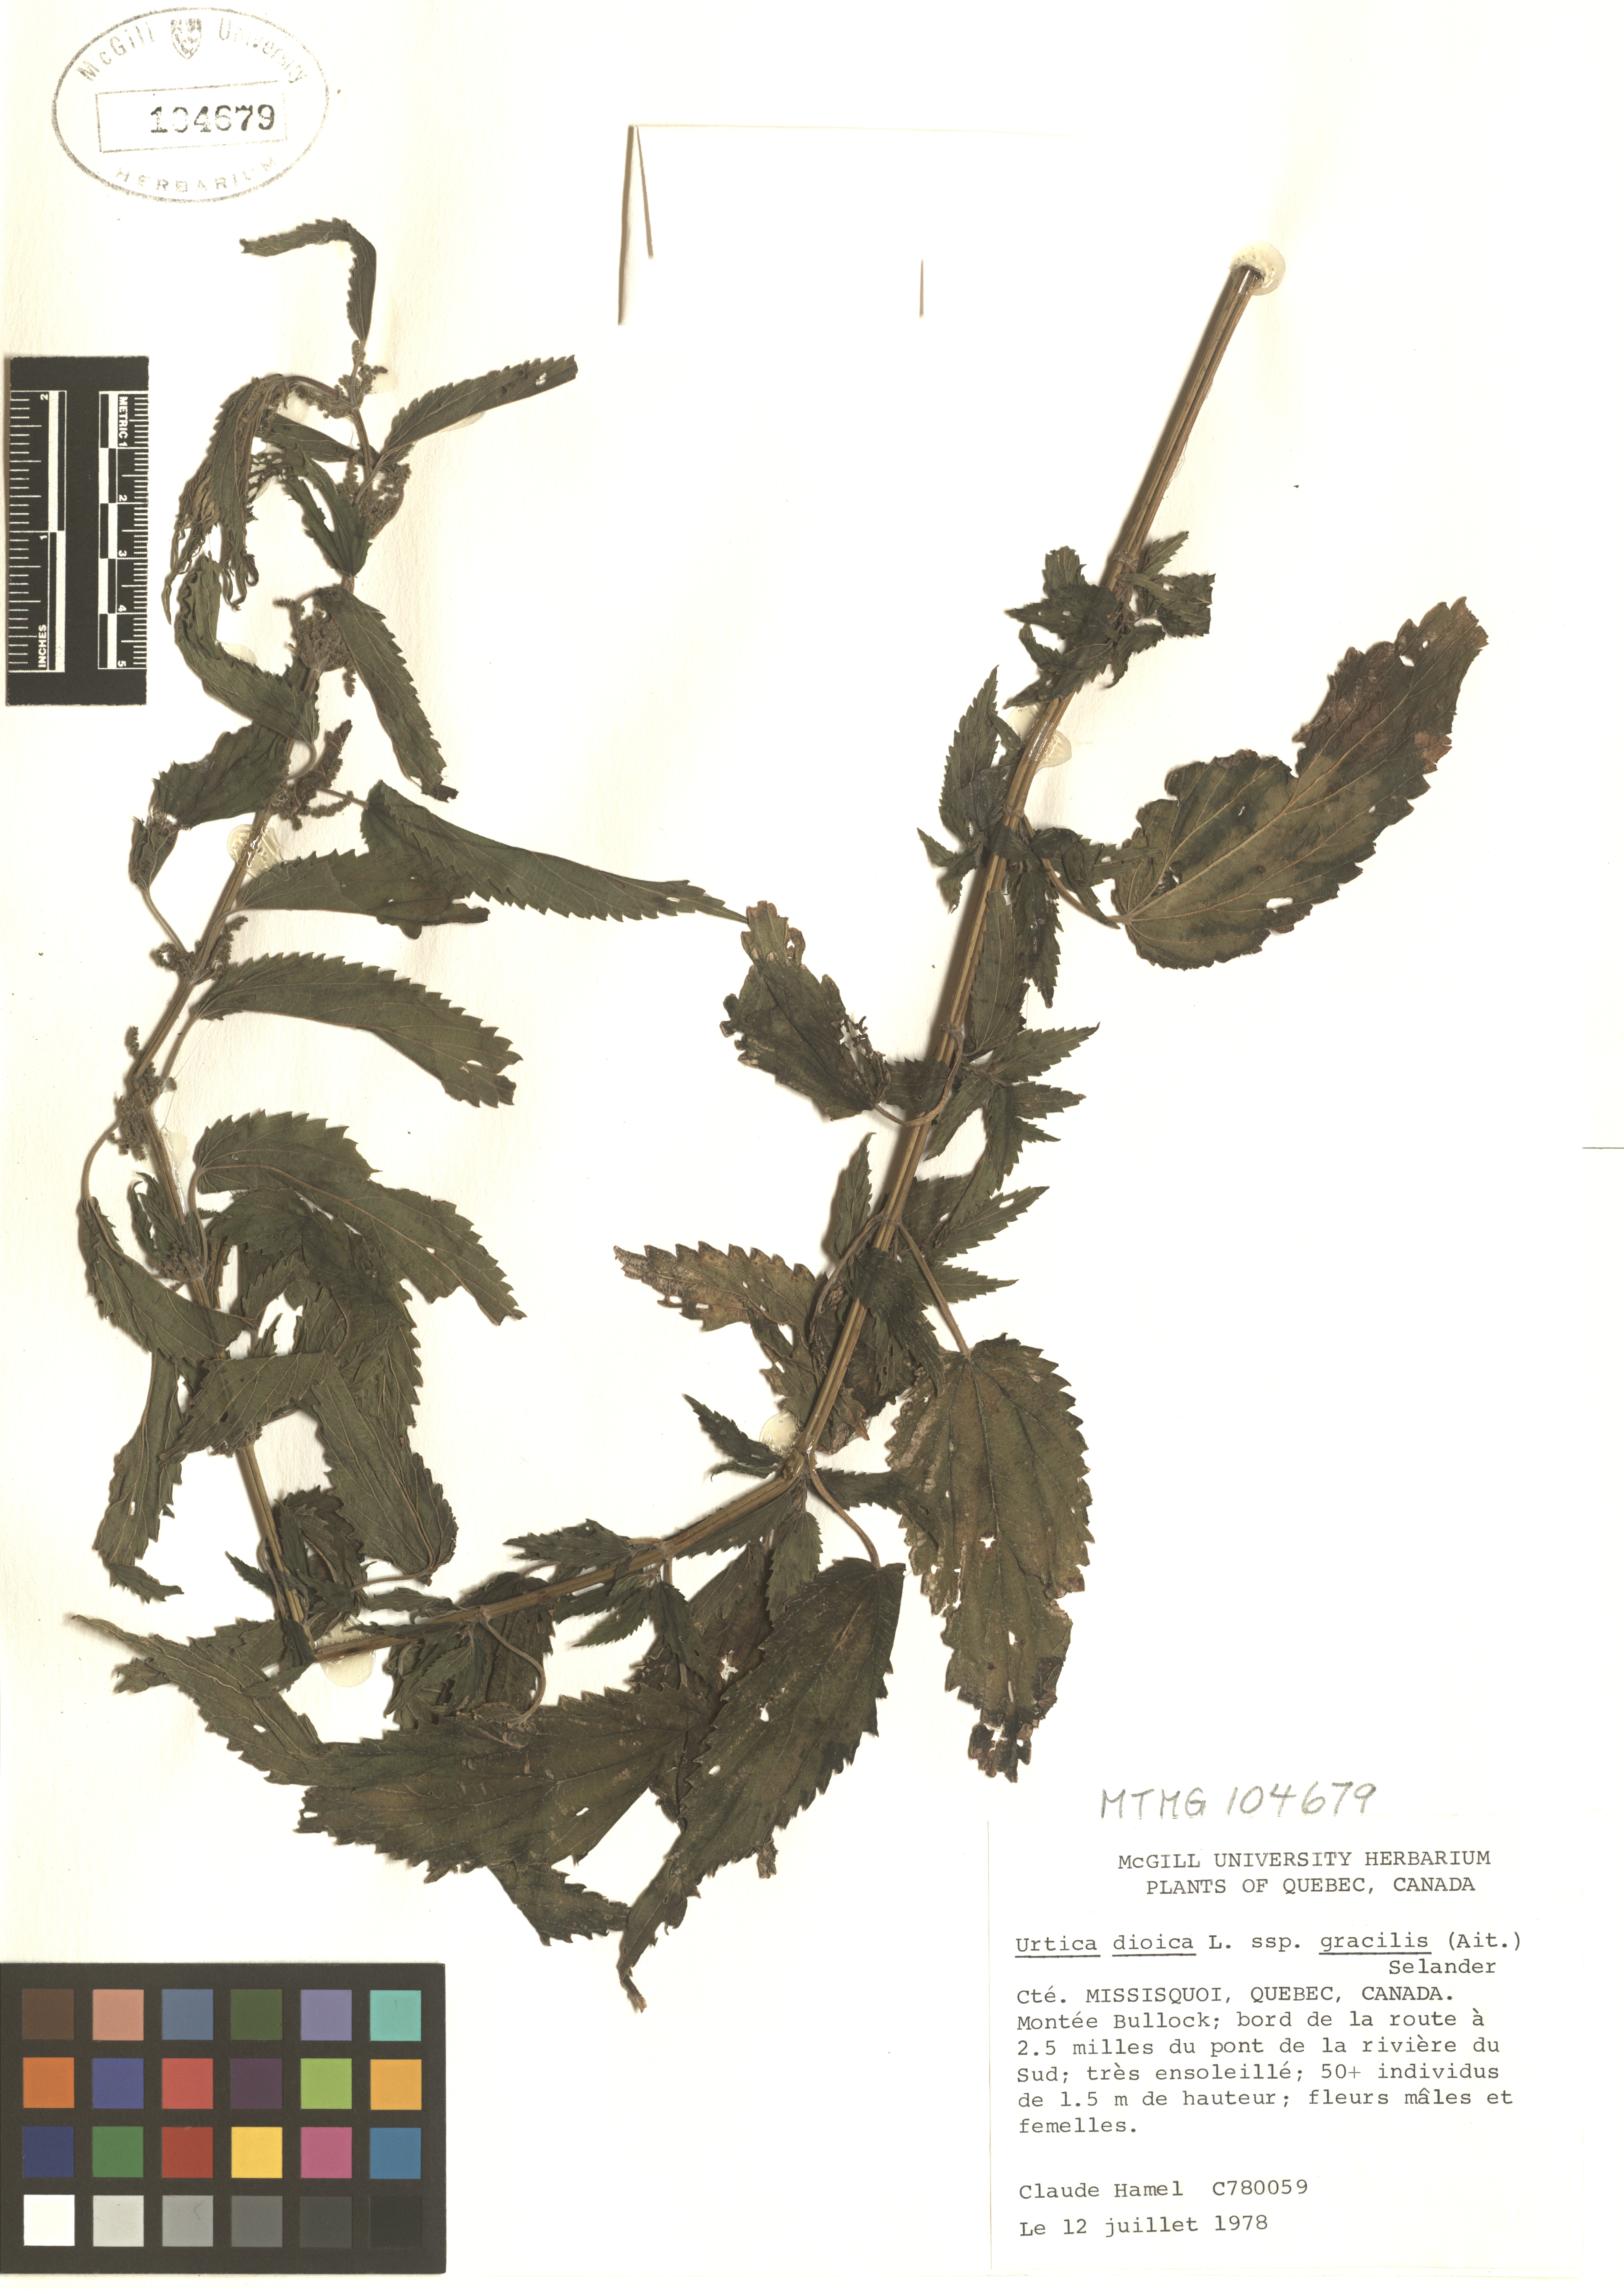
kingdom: Plantae
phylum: Tracheophyta
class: Magnoliopsida
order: Rosales
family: Urticaceae
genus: Urtica
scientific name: Urtica gracilis
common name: Slender stinging nettle
